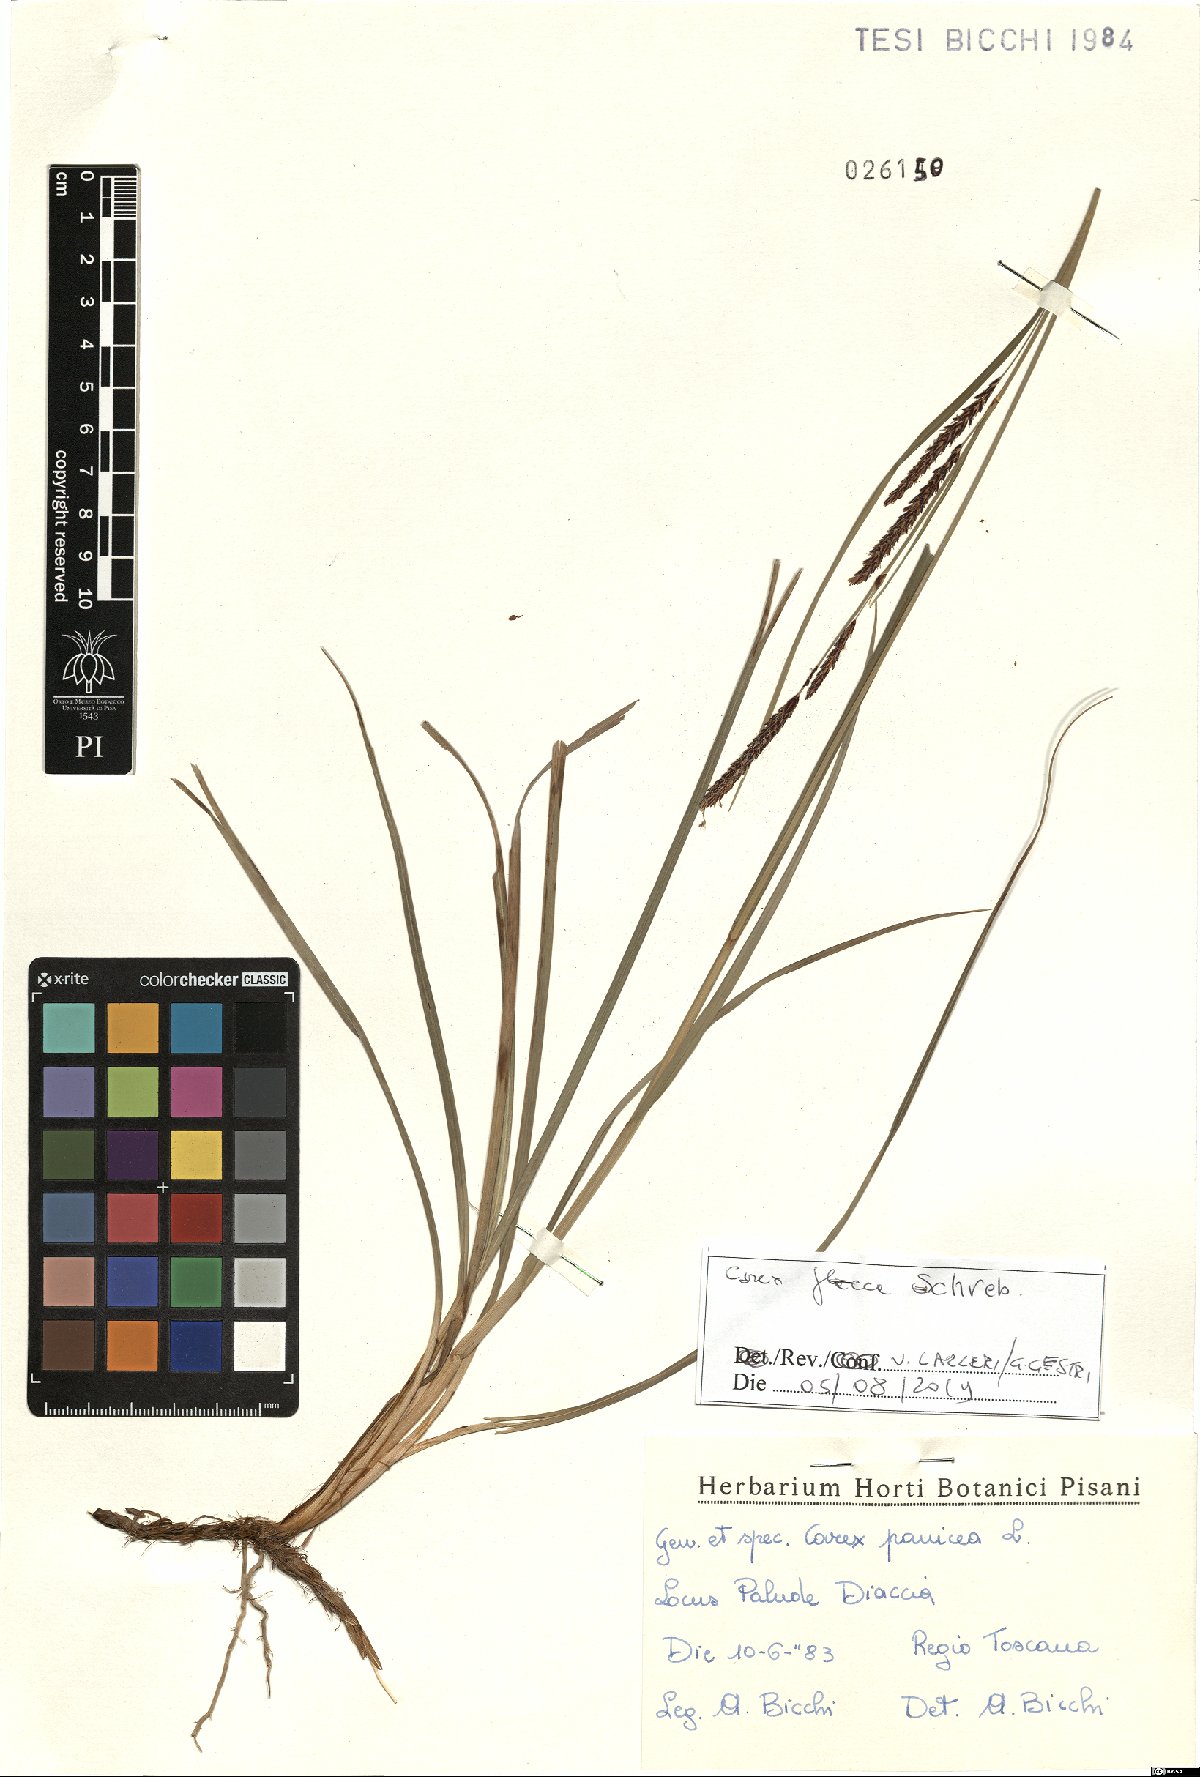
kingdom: Plantae
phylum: Tracheophyta
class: Liliopsida
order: Poales
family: Cyperaceae
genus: Carex
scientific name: Carex flacca
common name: Glaucous sedge
